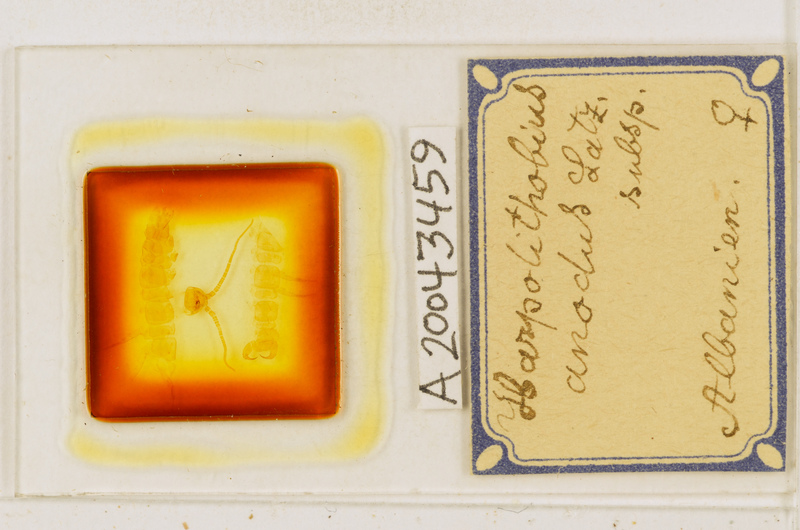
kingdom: Animalia
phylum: Arthropoda
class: Chilopoda
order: Lithobiomorpha
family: Lithobiidae
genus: Lithobius
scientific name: Lithobius
